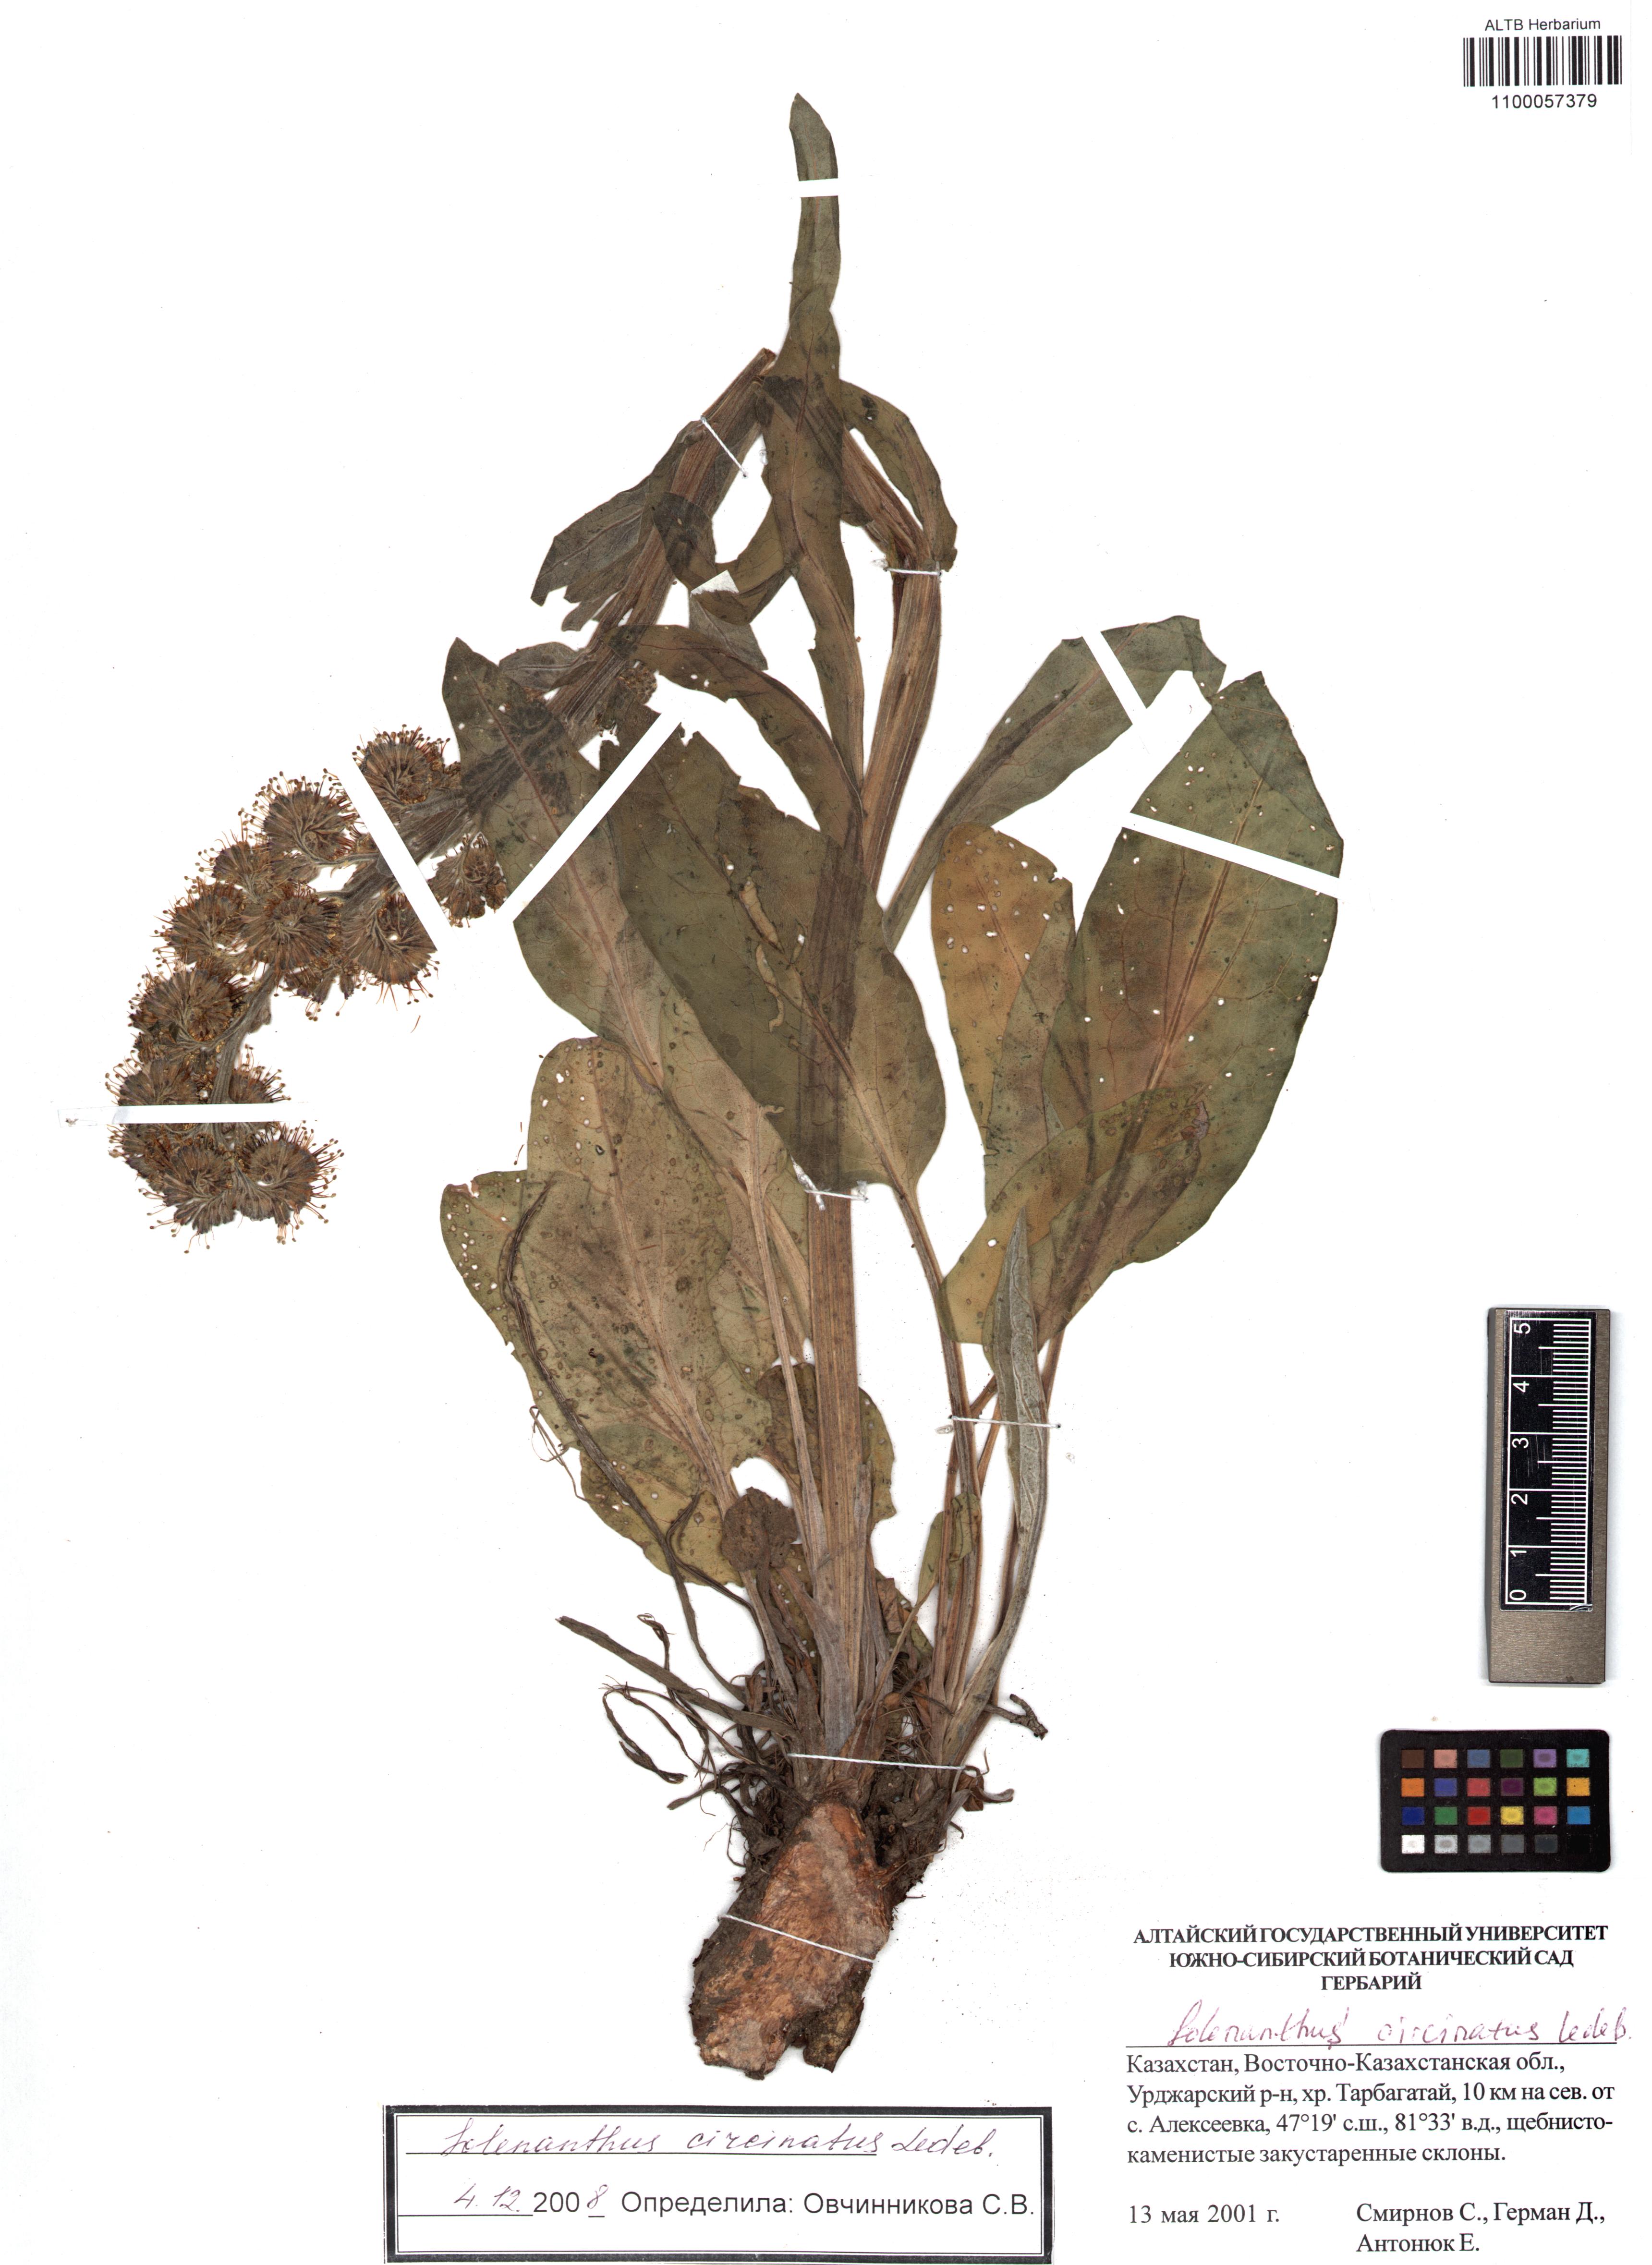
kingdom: Plantae
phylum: Tracheophyta
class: Magnoliopsida
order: Boraginales
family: Boraginaceae
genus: Solenanthus
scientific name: Solenanthus circinnatus
